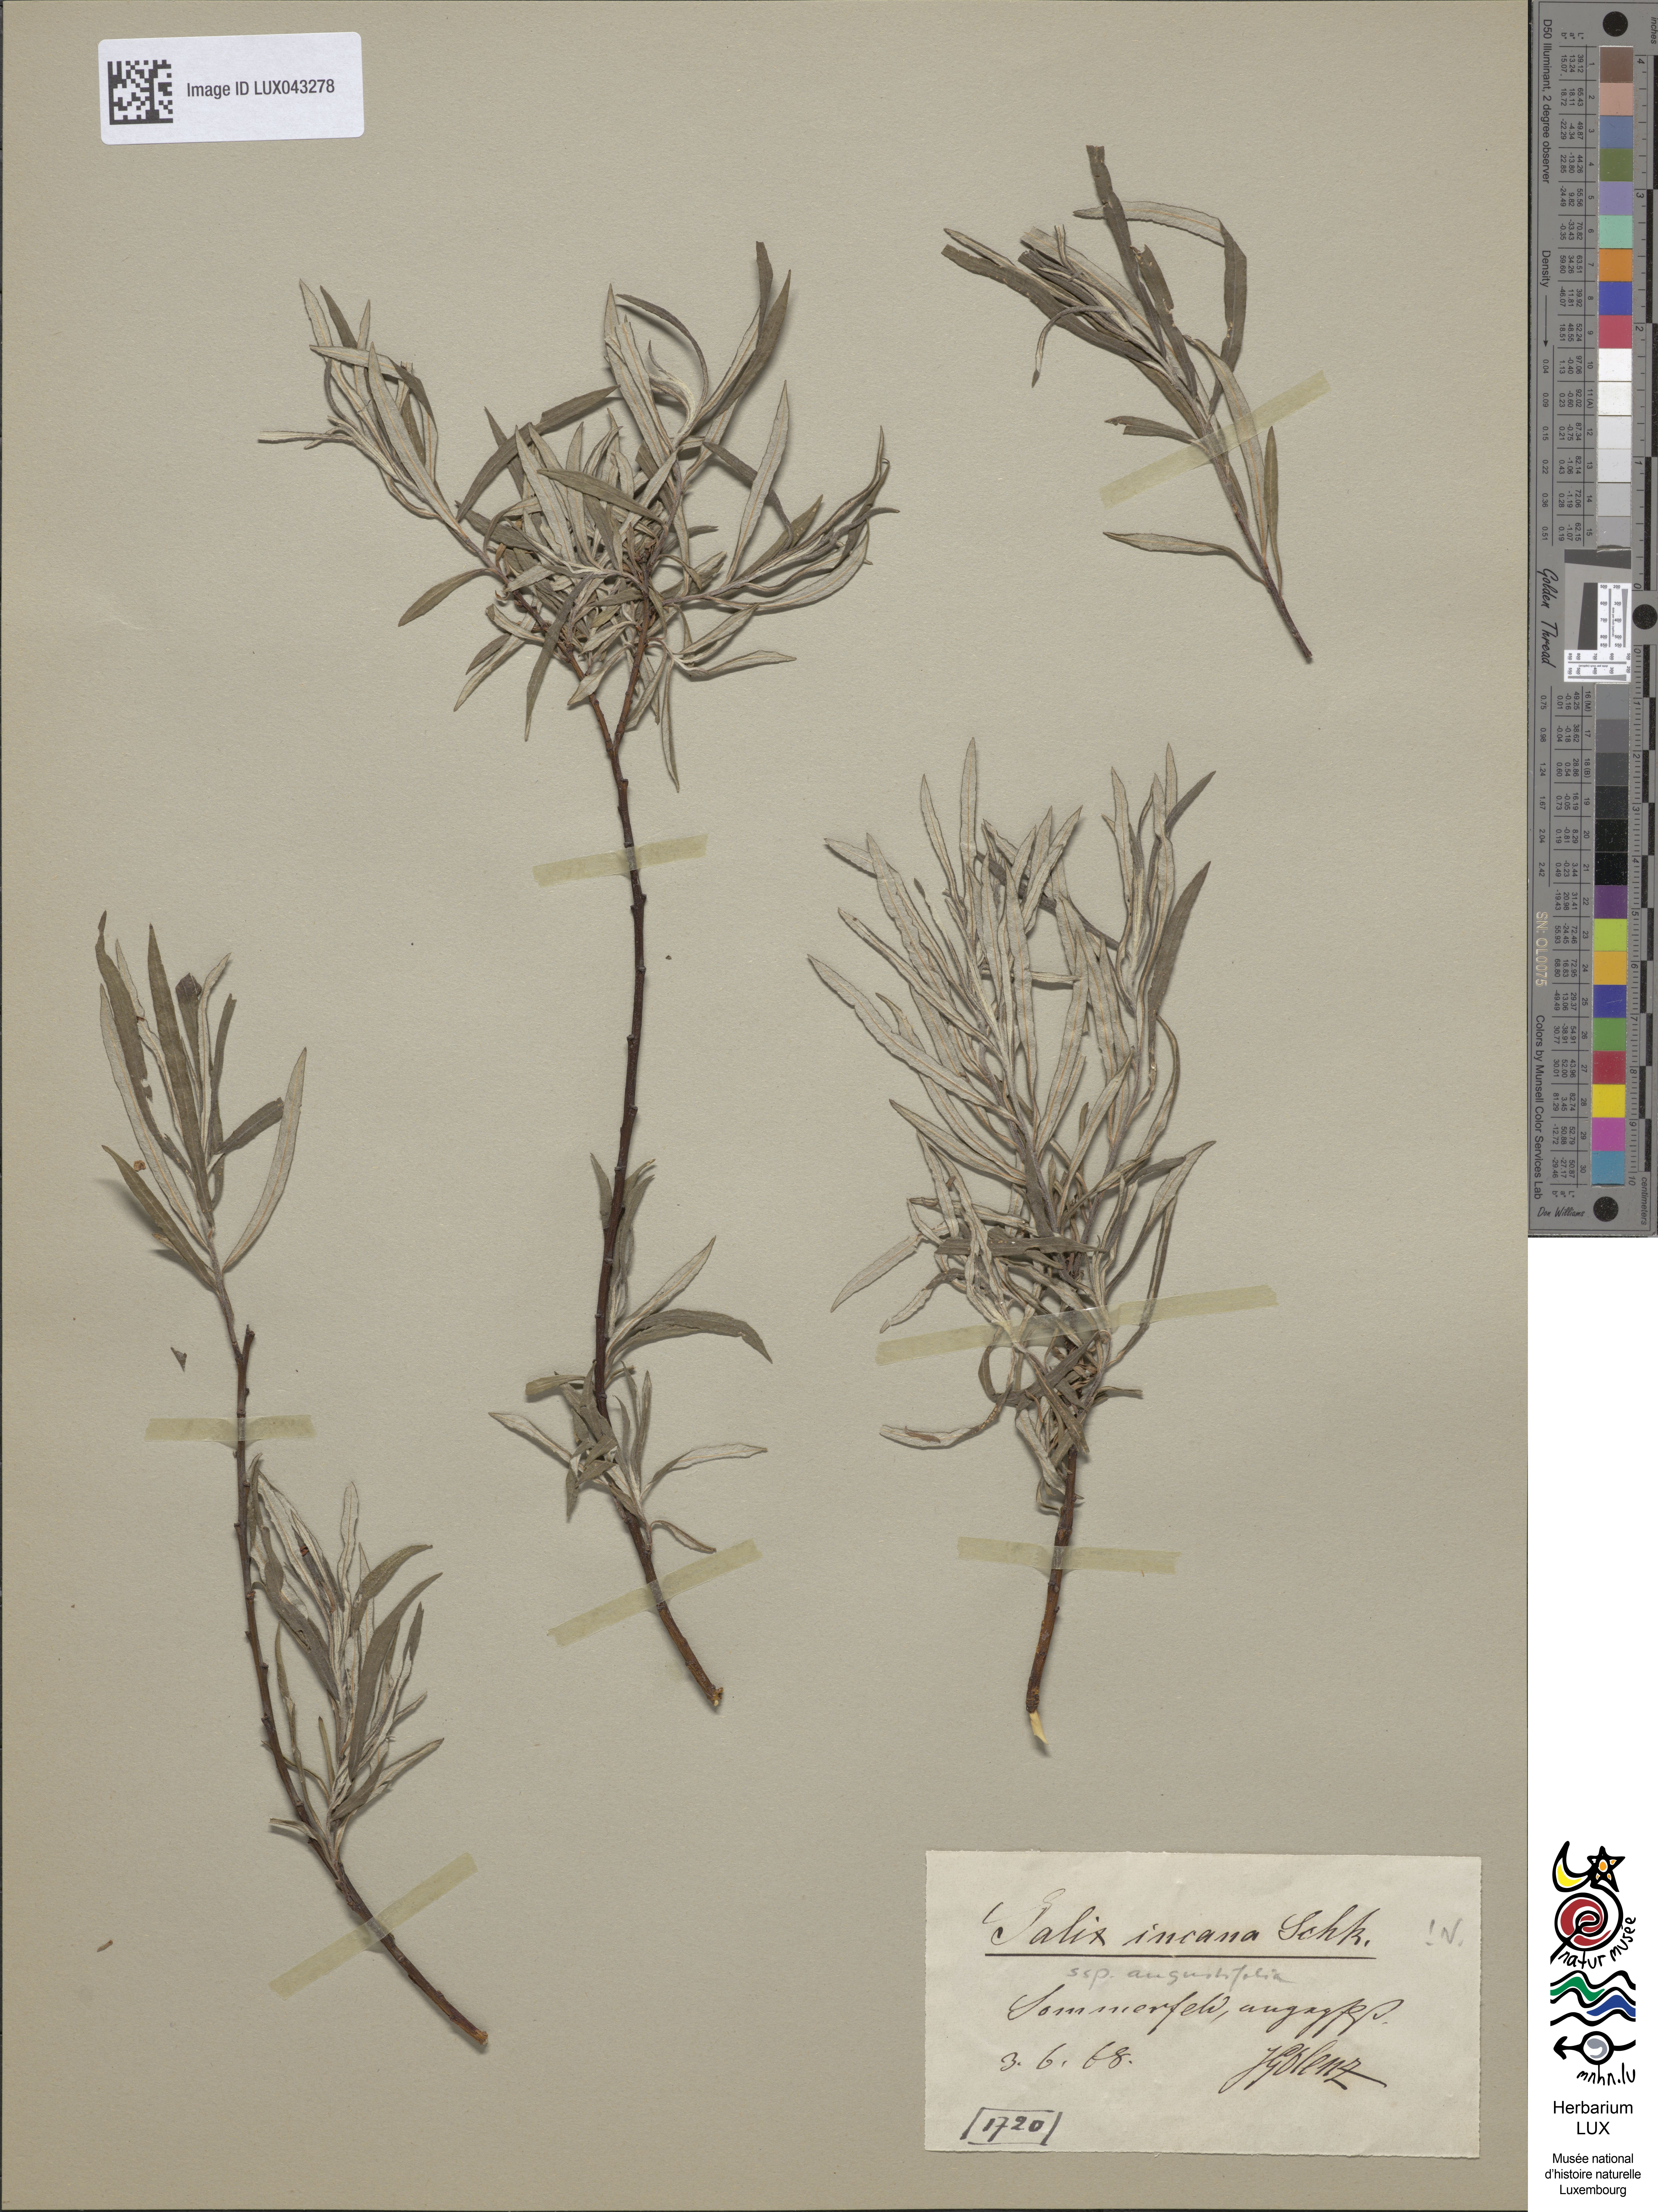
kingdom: Plantae
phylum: Tracheophyta
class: Magnoliopsida
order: Malpighiales
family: Salicaceae
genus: Salix
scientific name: Salix eleagnos
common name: Elaeagnus willow
